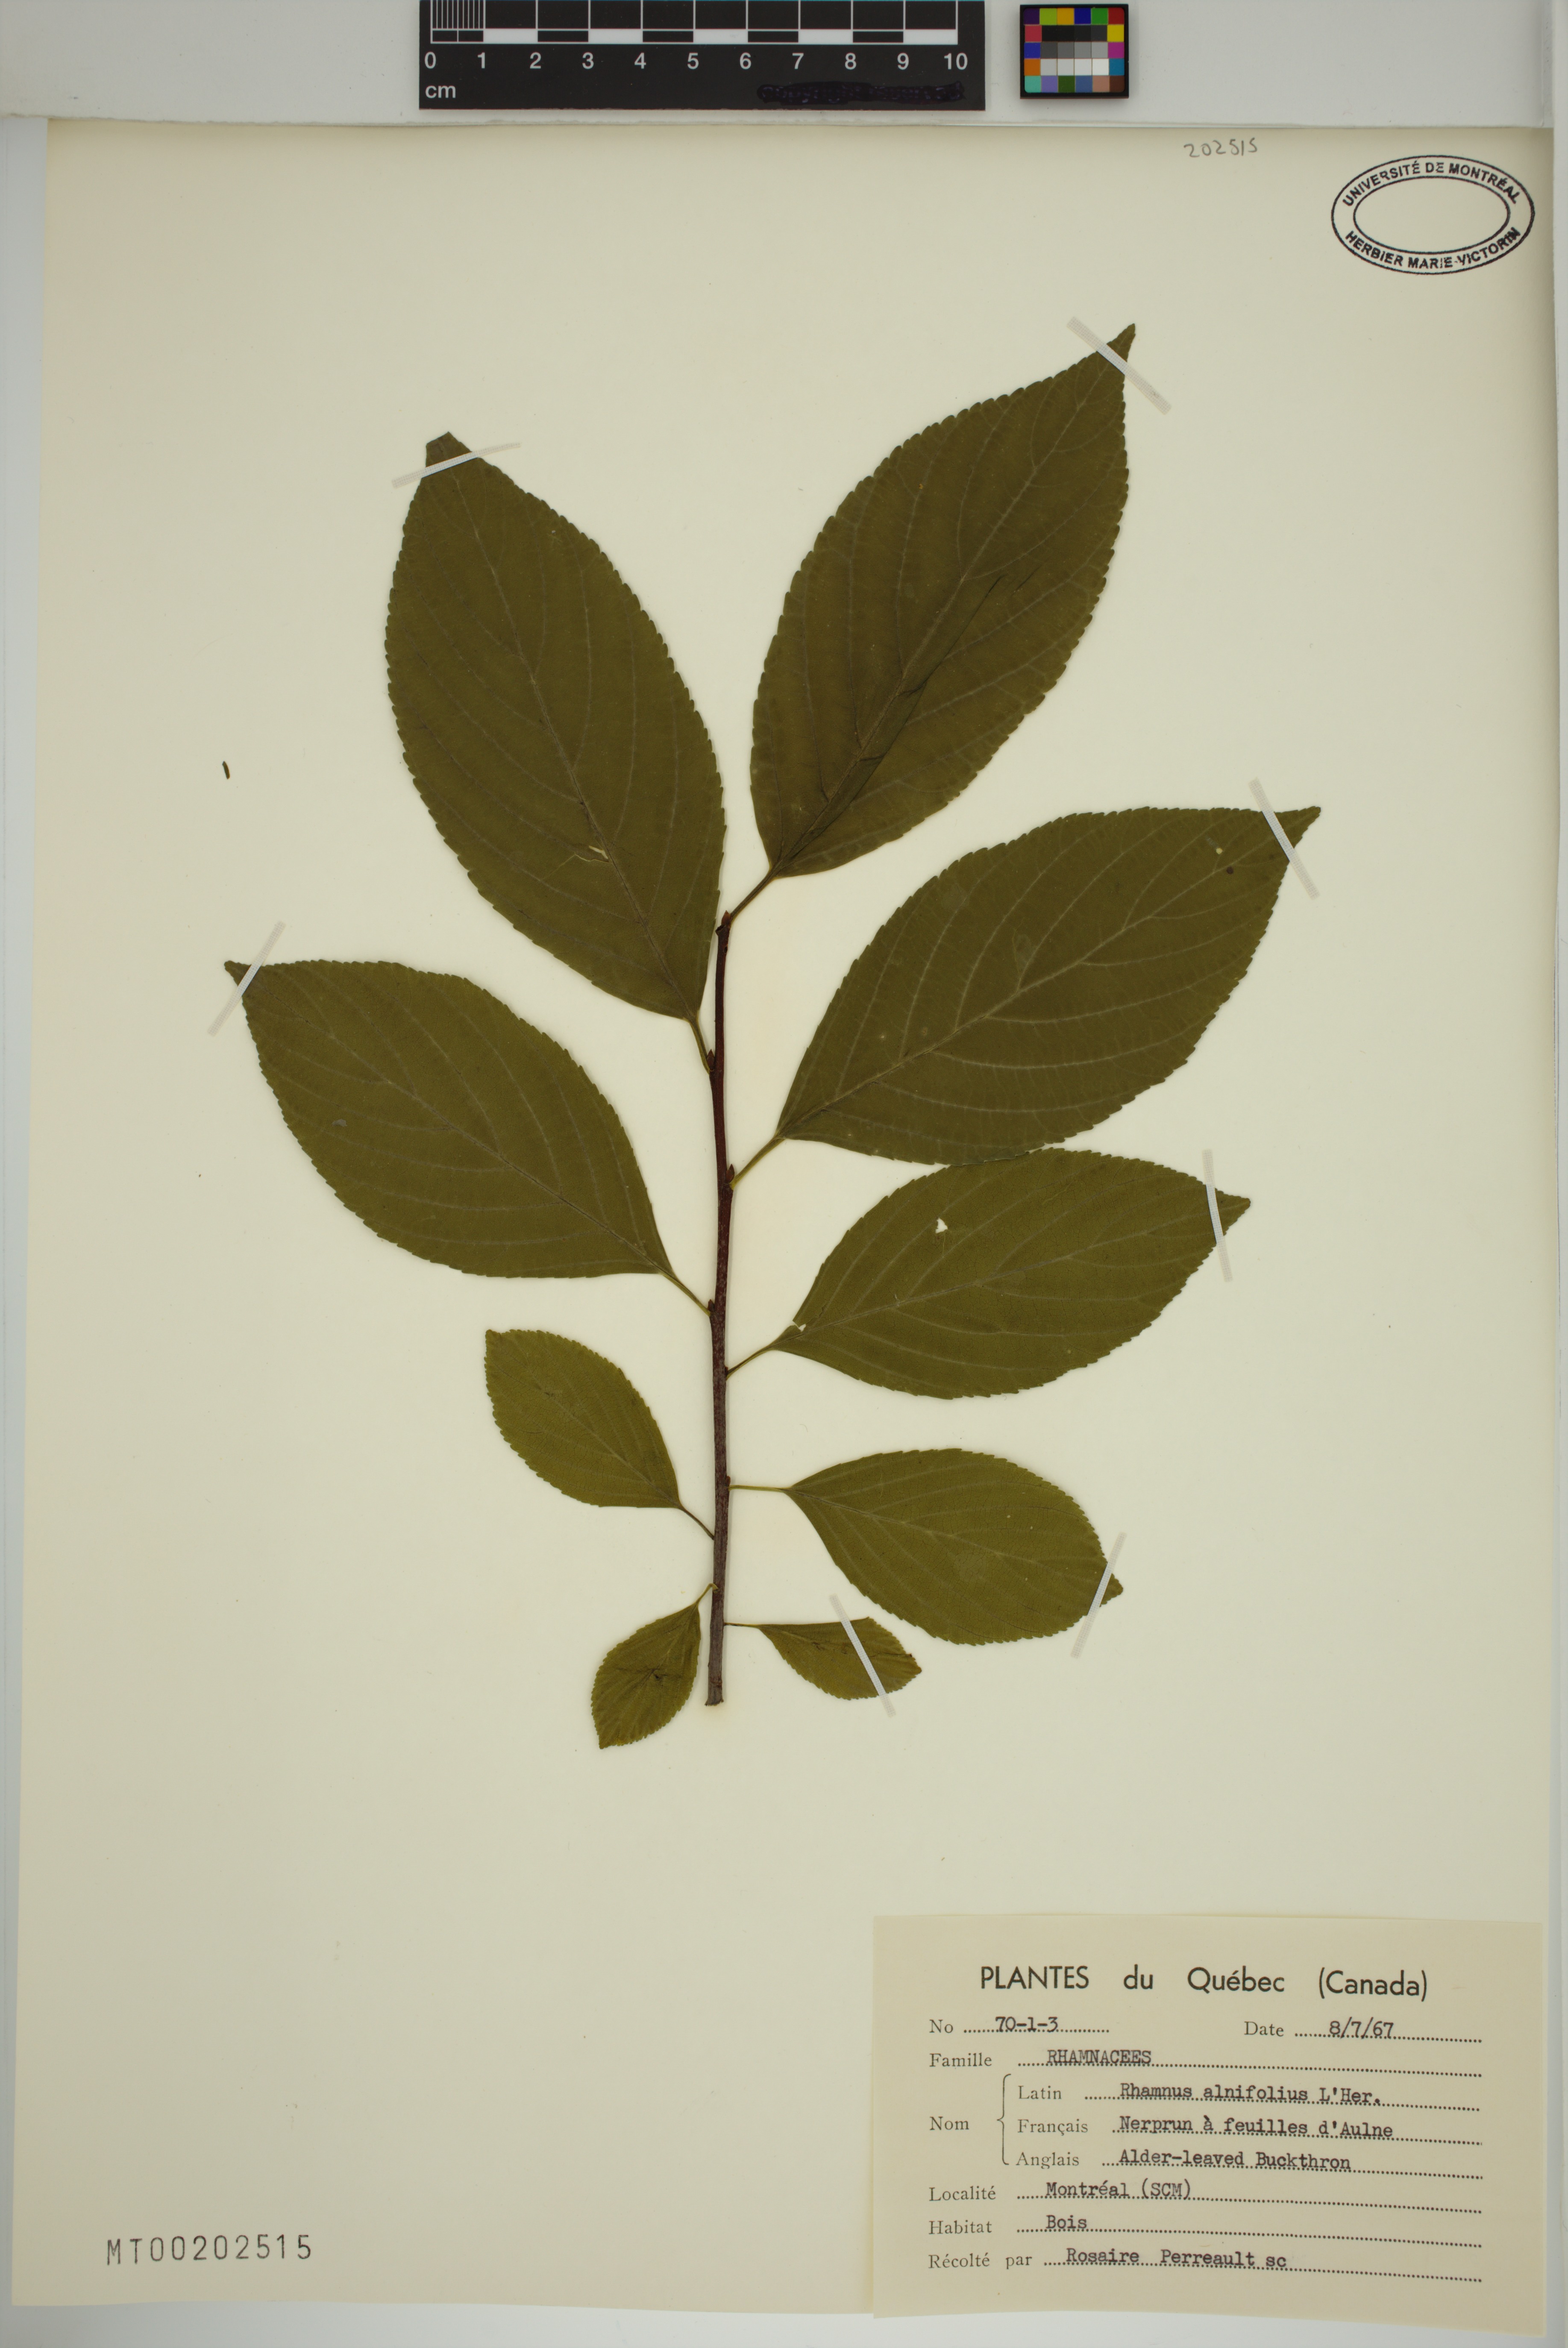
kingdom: Plantae
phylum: Tracheophyta
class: Magnoliopsida
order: Rosales
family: Rhamnaceae
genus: Endotropis
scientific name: Endotropis alnifolia
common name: American alder-buckthorn
